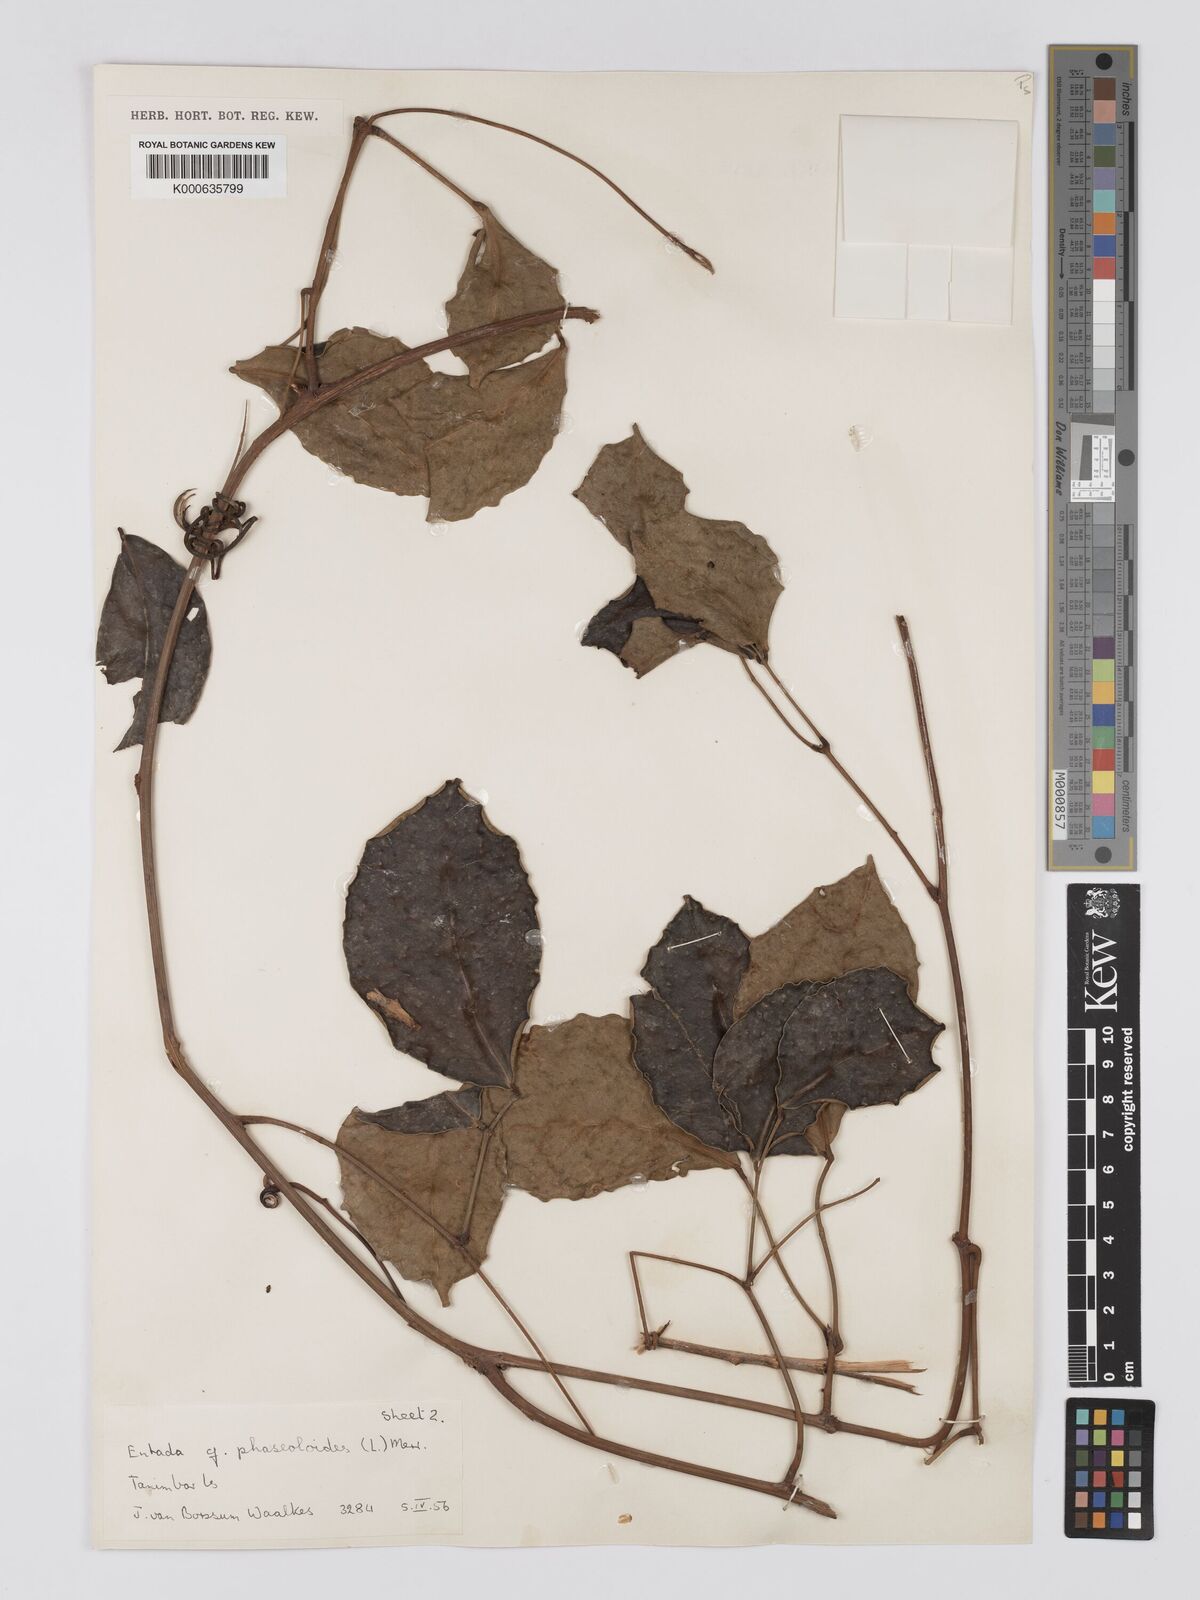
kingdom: Plantae
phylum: Tracheophyta
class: Magnoliopsida
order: Fabales
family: Fabaceae
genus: Entada
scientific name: Entada phaseoloides
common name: Matchbox-bean
